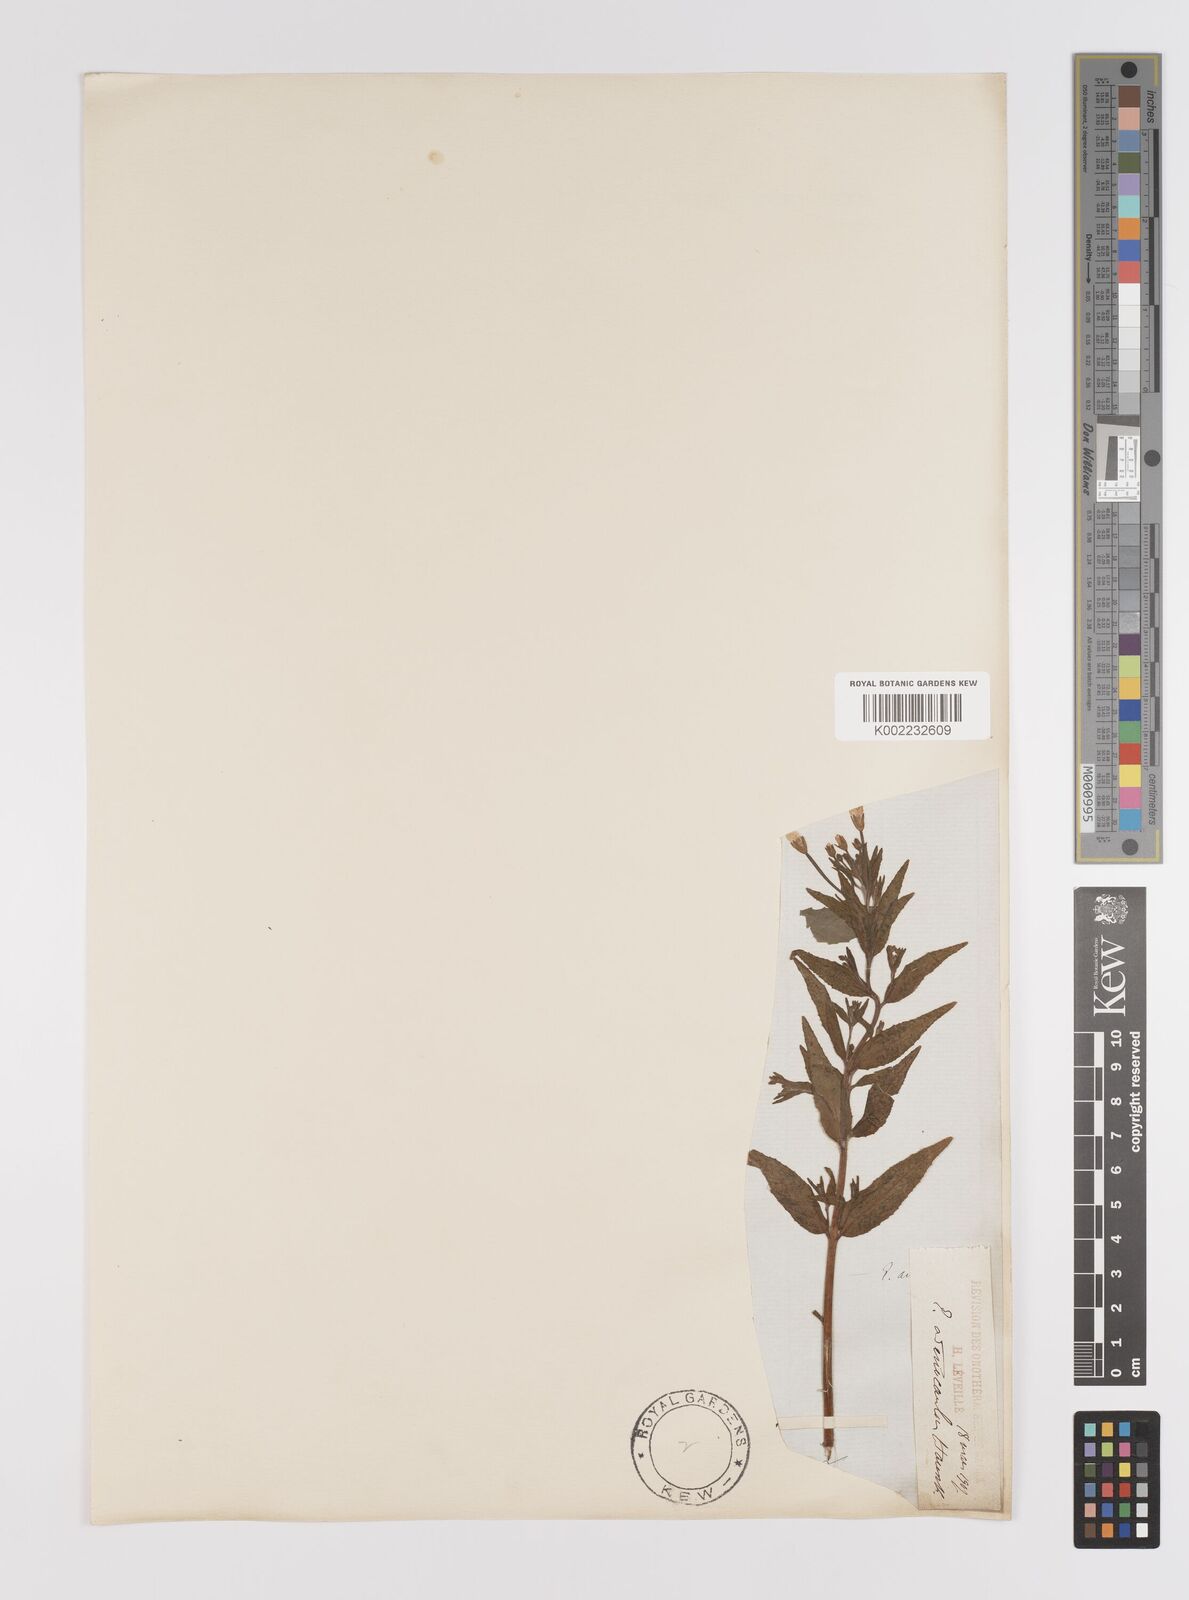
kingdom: Plantae
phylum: Tracheophyta
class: Magnoliopsida
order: Myrtales
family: Onagraceae
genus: Epilobium
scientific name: Epilobium ciliatum
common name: American willowherb
